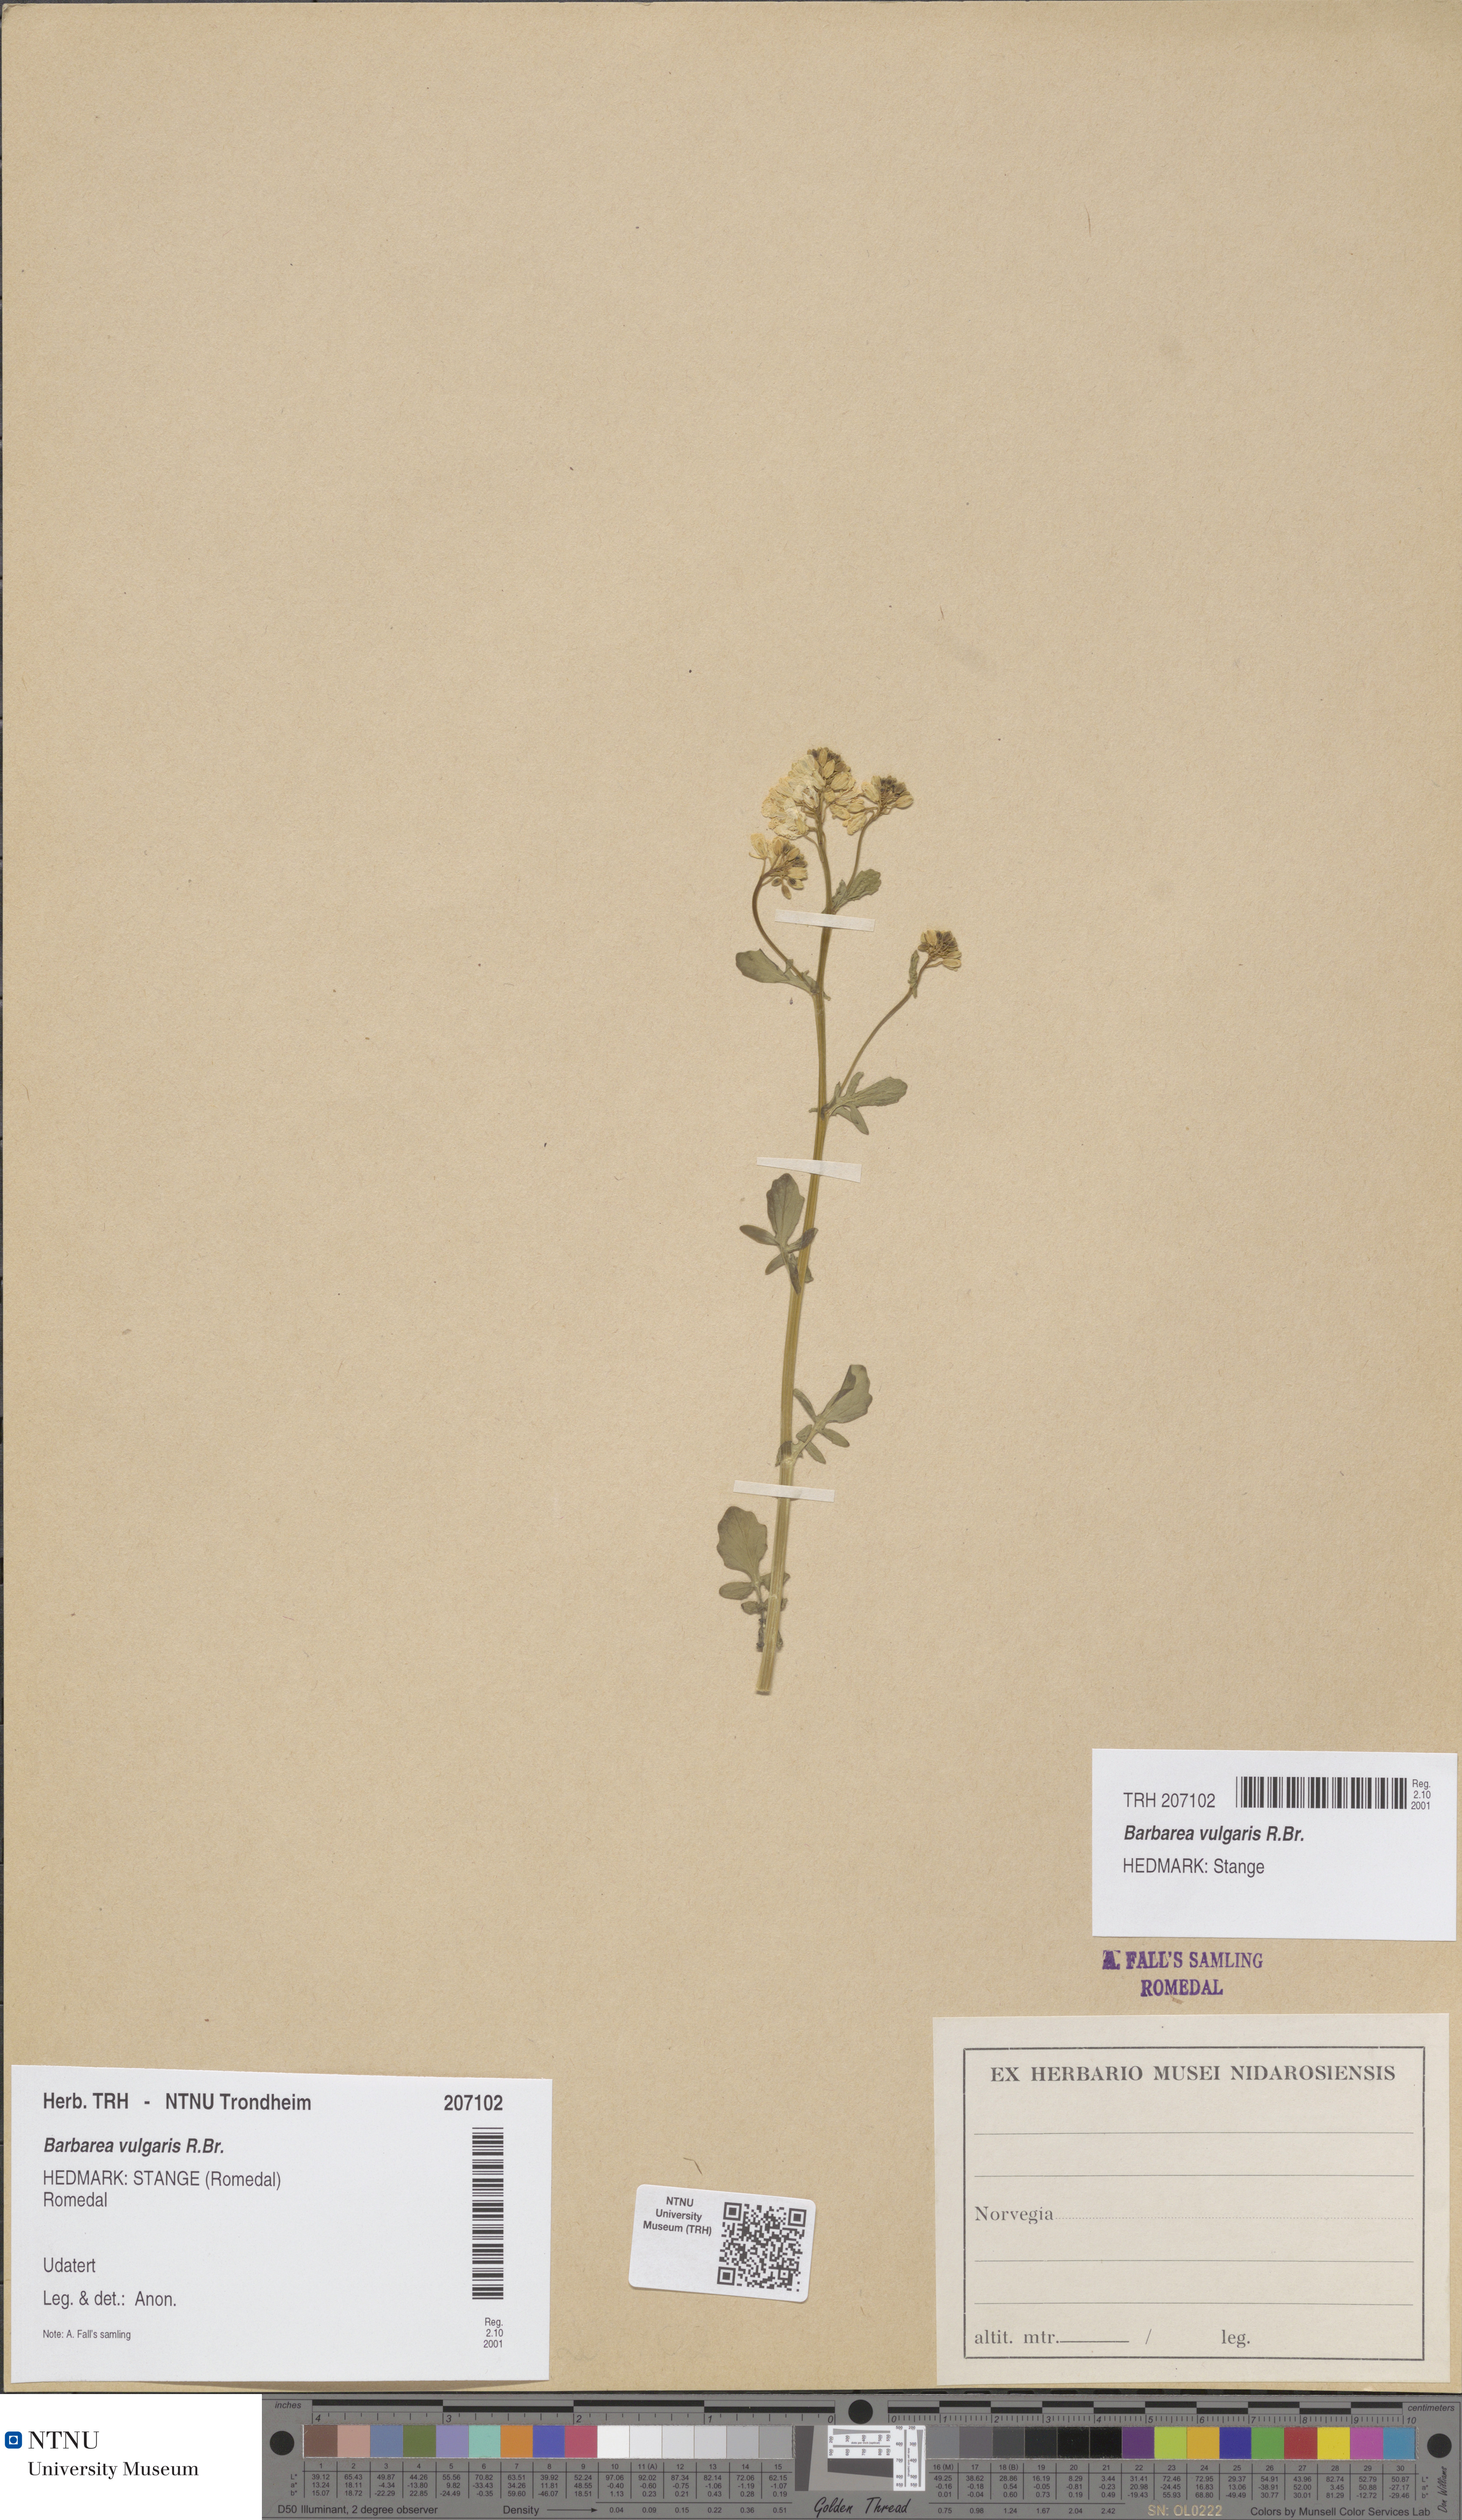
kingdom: Plantae
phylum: Tracheophyta
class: Magnoliopsida
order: Brassicales
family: Brassicaceae
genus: Barbarea
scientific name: Barbarea vulgaris
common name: Cressy-greens
